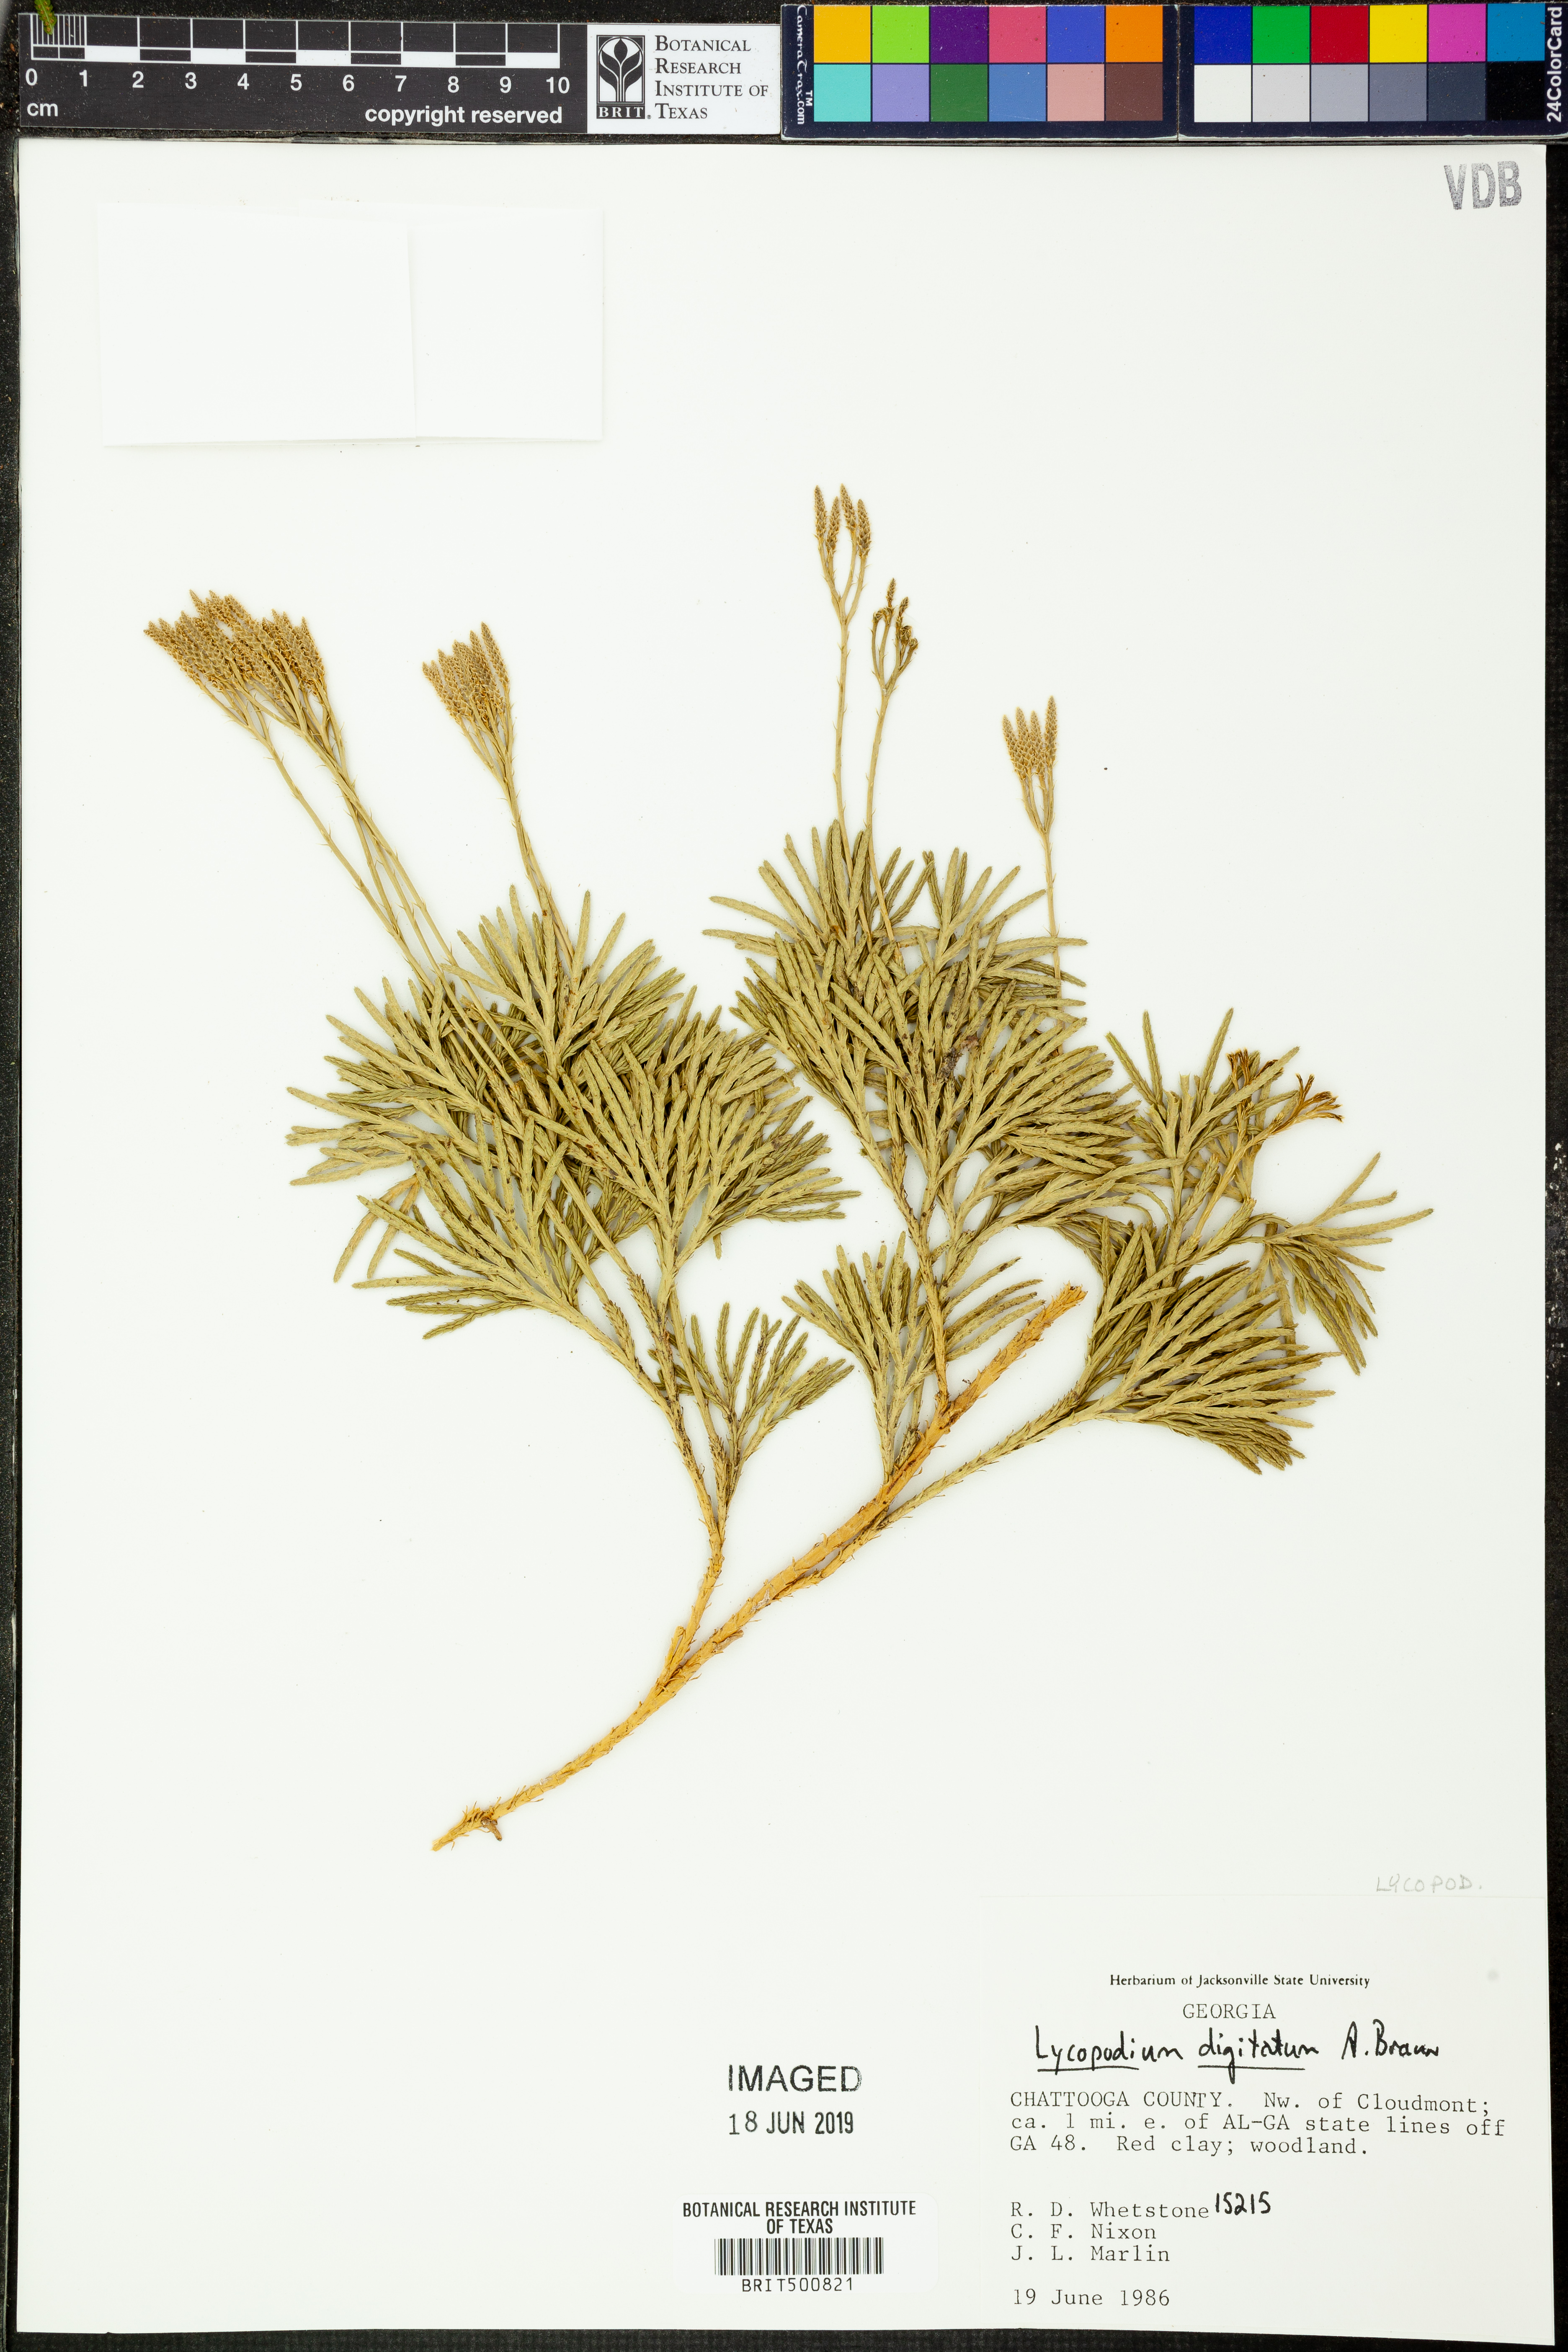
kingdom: Plantae
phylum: Tracheophyta
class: Lycopodiopsida
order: Lycopodiales
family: Lycopodiaceae
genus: Diphasiastrum
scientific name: Diphasiastrum digitatum
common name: Southern running-pine
